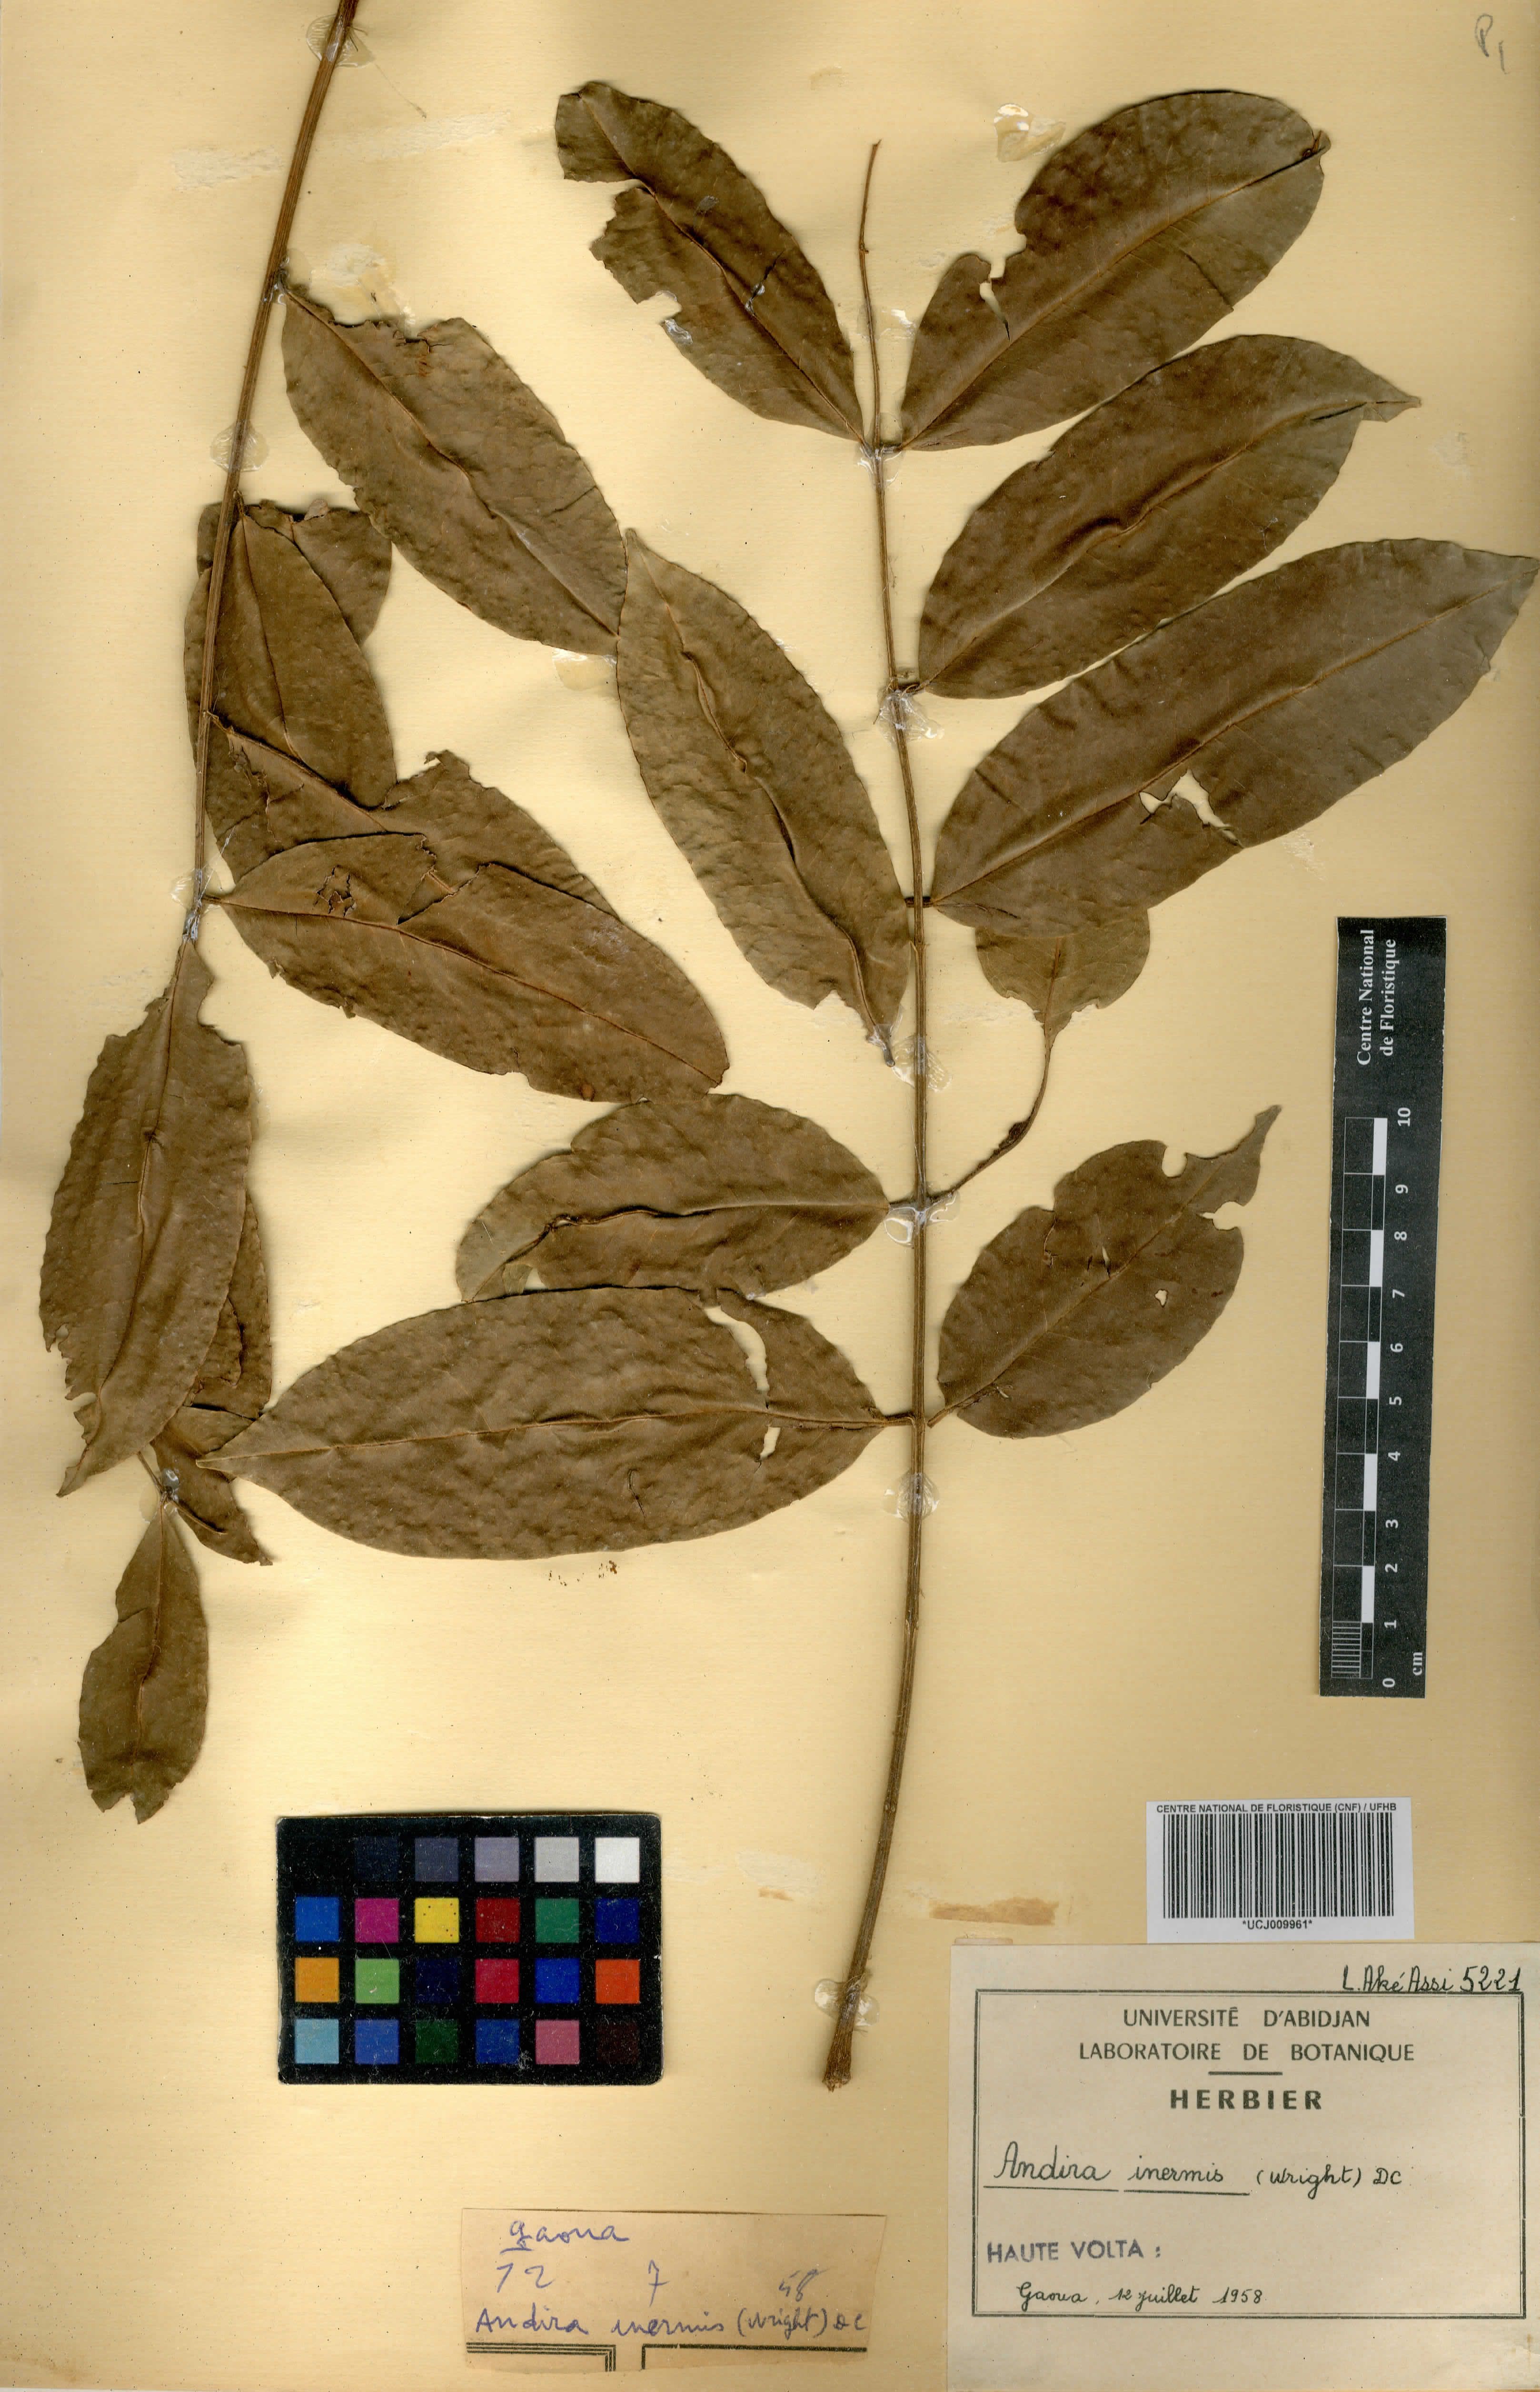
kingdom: Plantae
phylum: Tracheophyta
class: Magnoliopsida
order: Fabales
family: Fabaceae
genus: Andira
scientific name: Andira inermis
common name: Angelin
